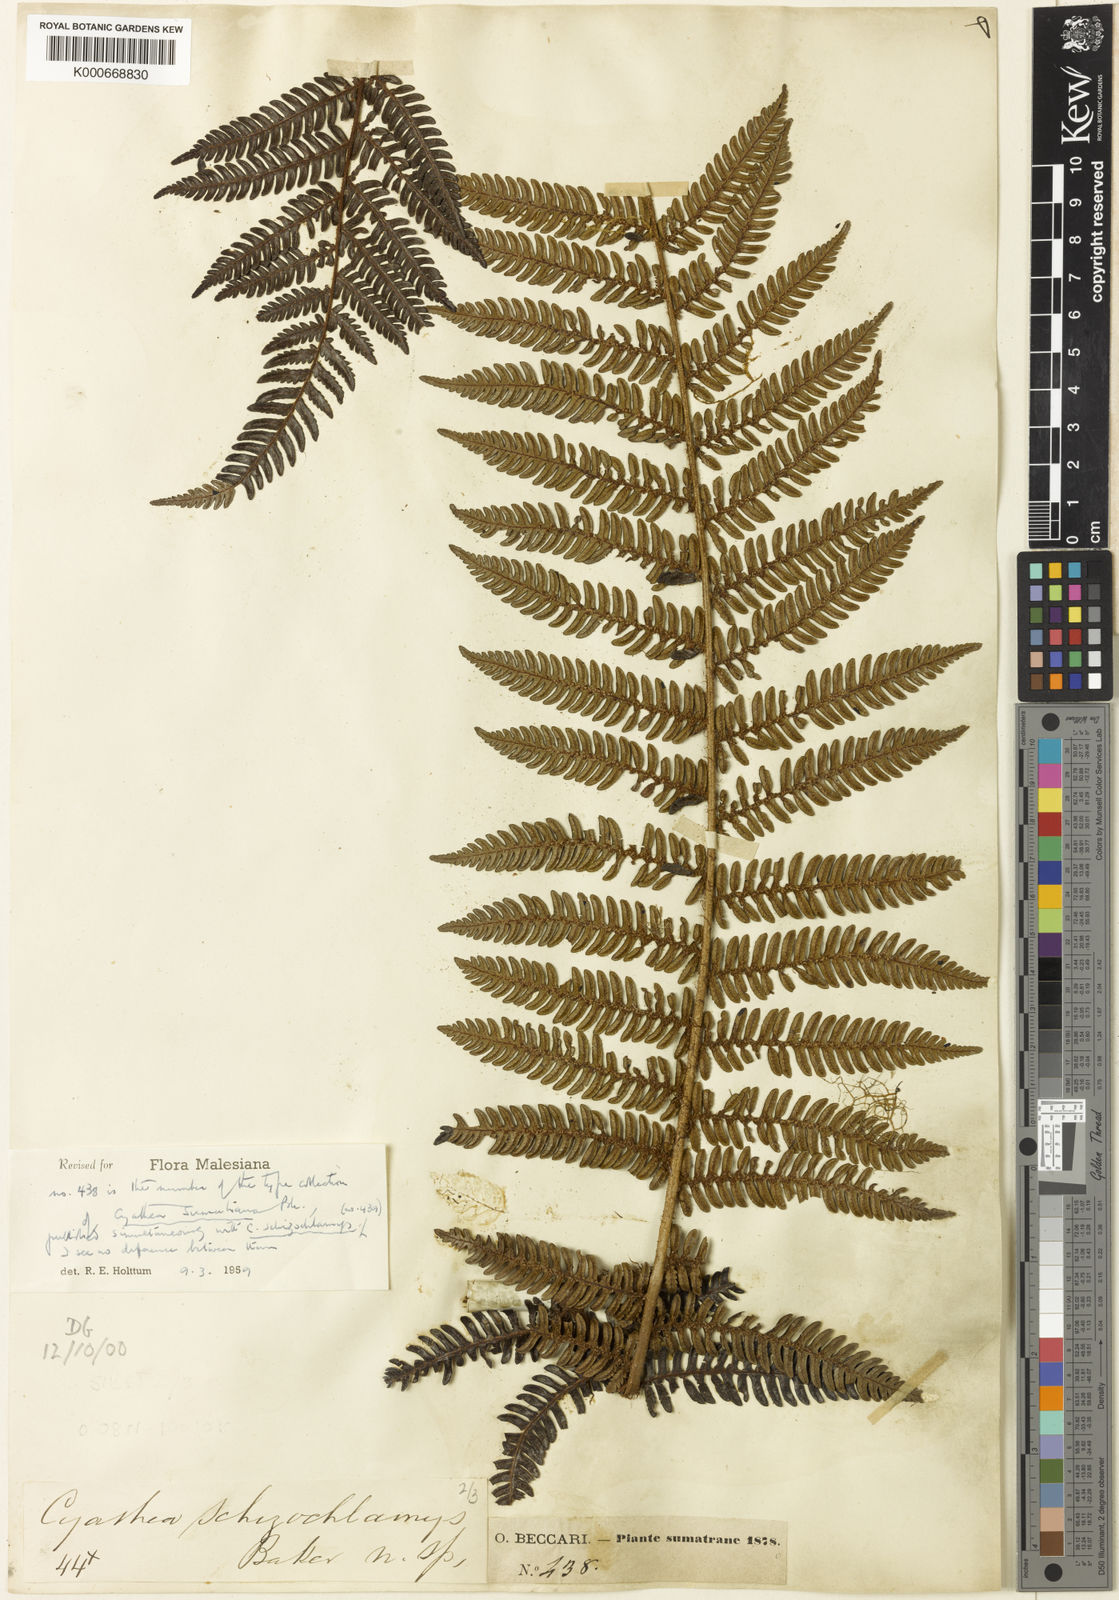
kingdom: Plantae
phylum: Tracheophyta
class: Polypodiopsida
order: Cyatheales
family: Cyatheaceae
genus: Alsophila
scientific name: Alsophila sumatrana
